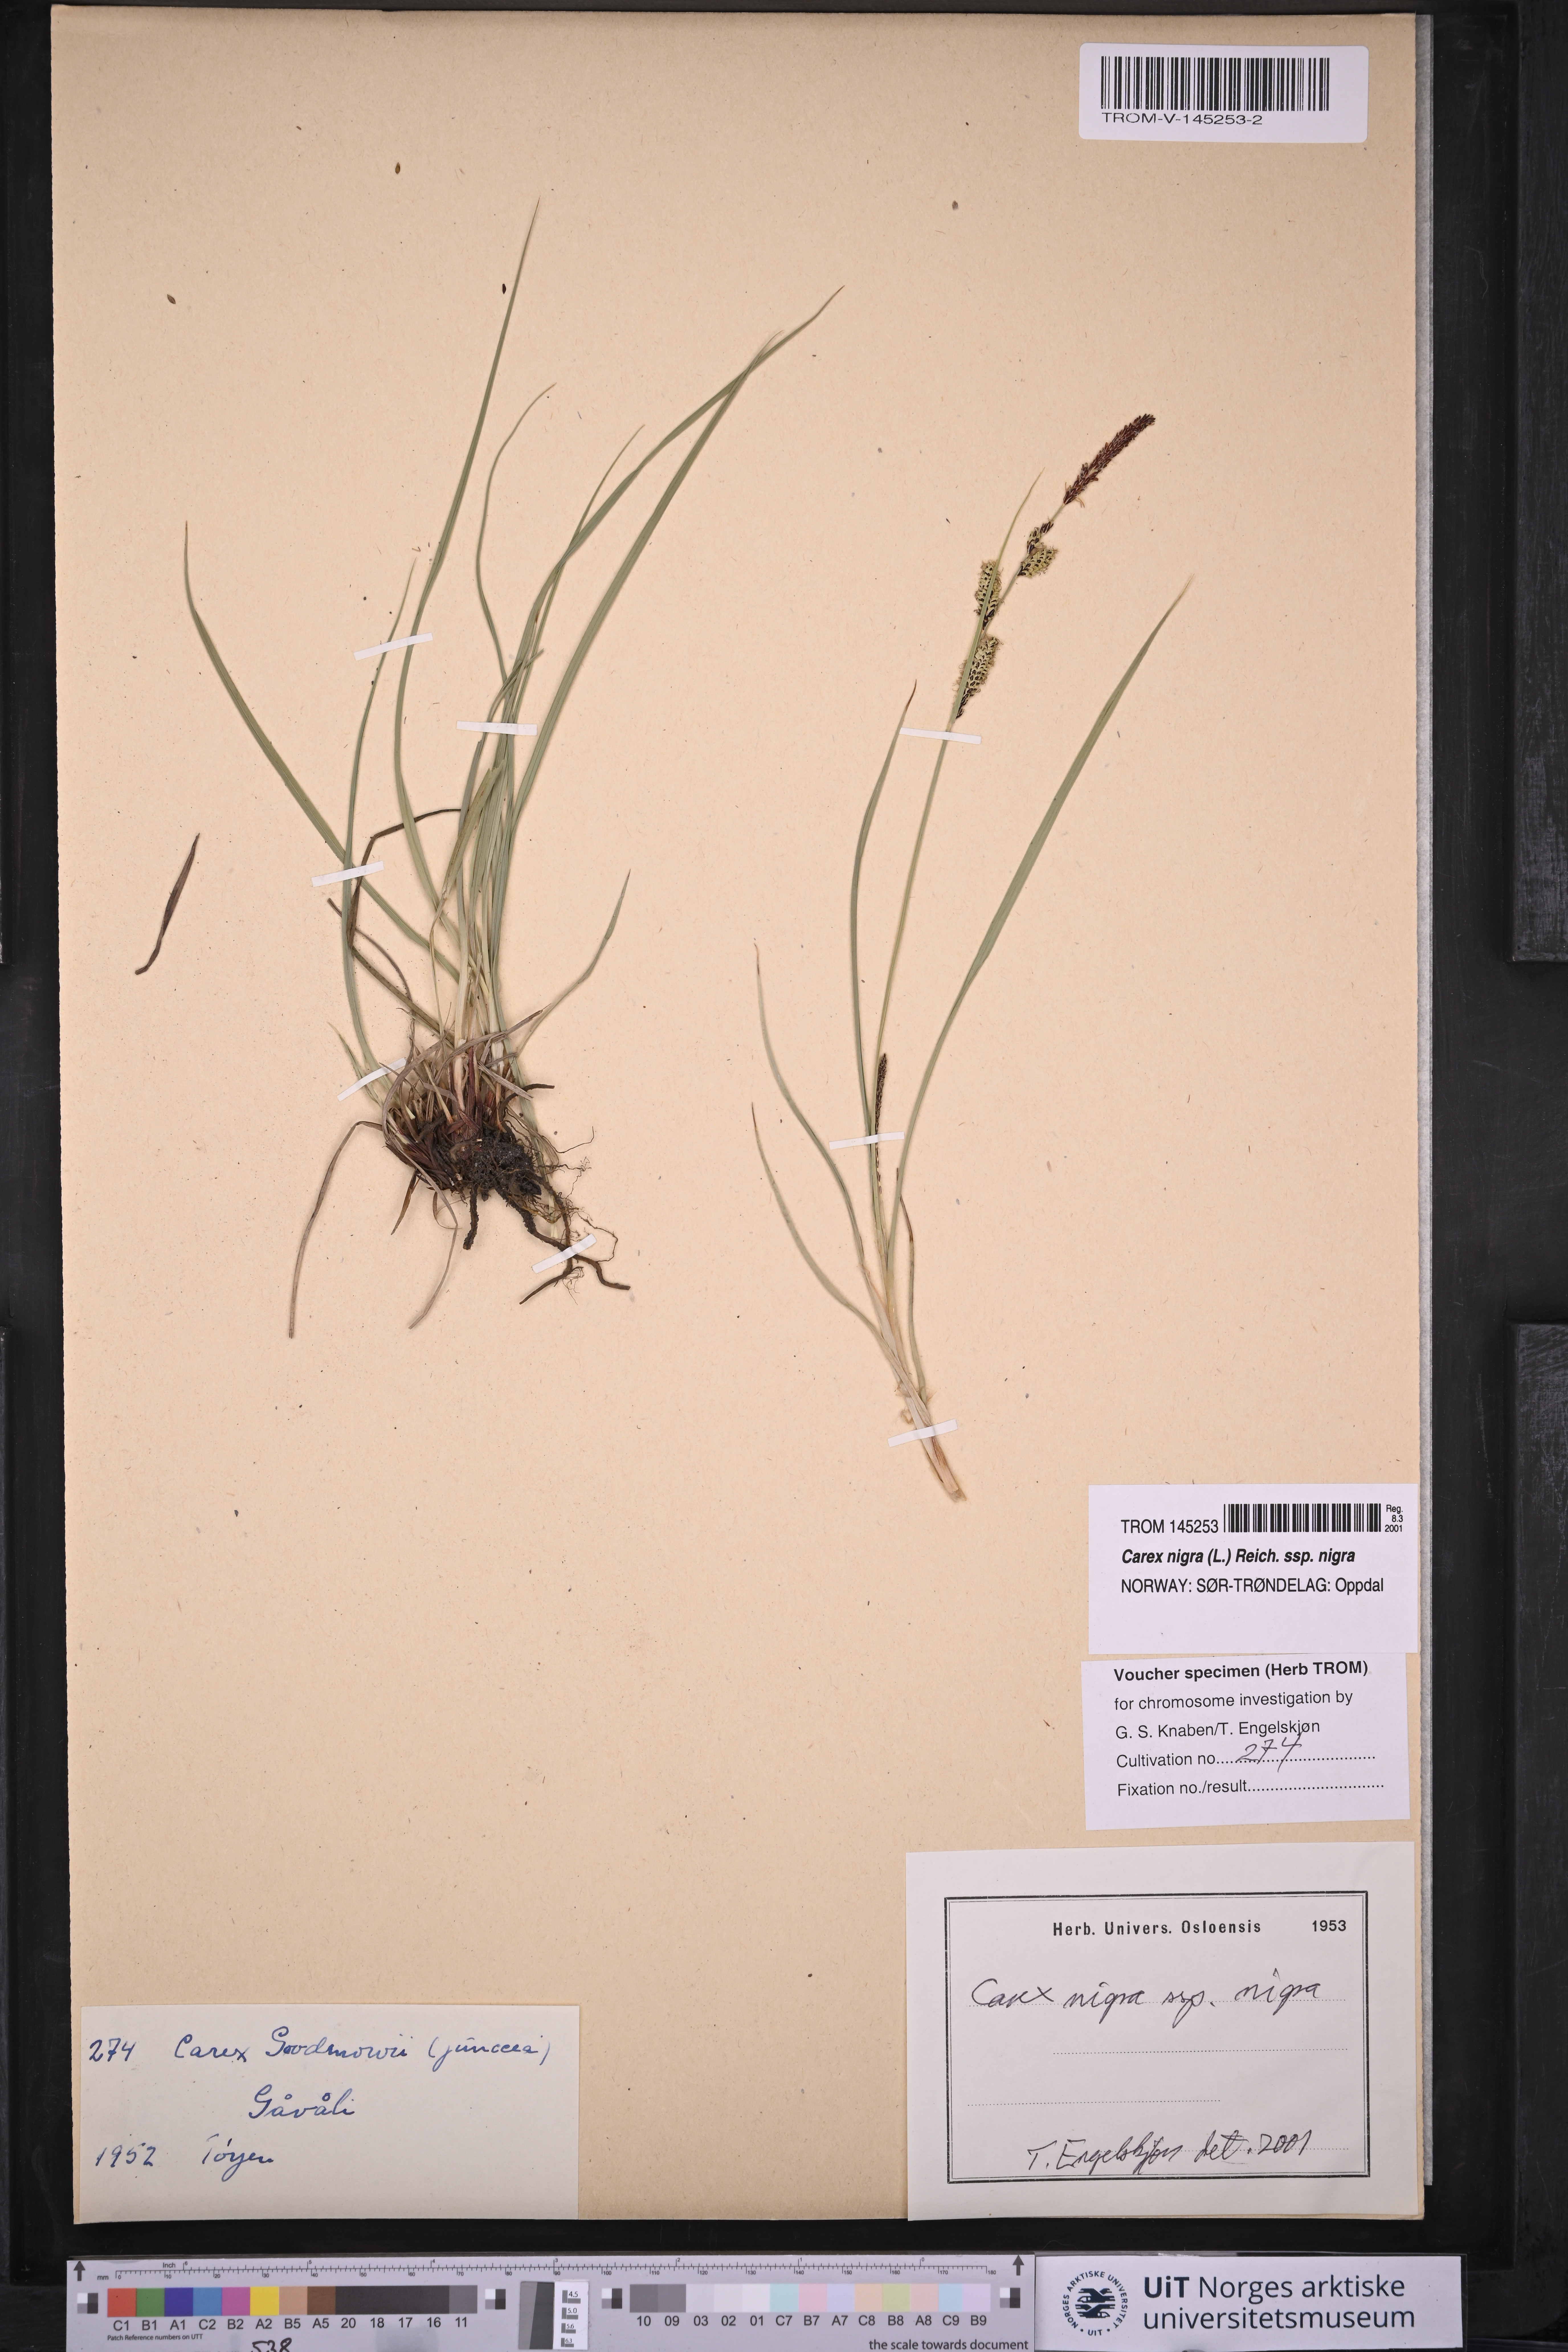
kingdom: Plantae
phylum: Tracheophyta
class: Liliopsida
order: Poales
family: Cyperaceae
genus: Carex
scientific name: Carex nigra
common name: Common sedge
